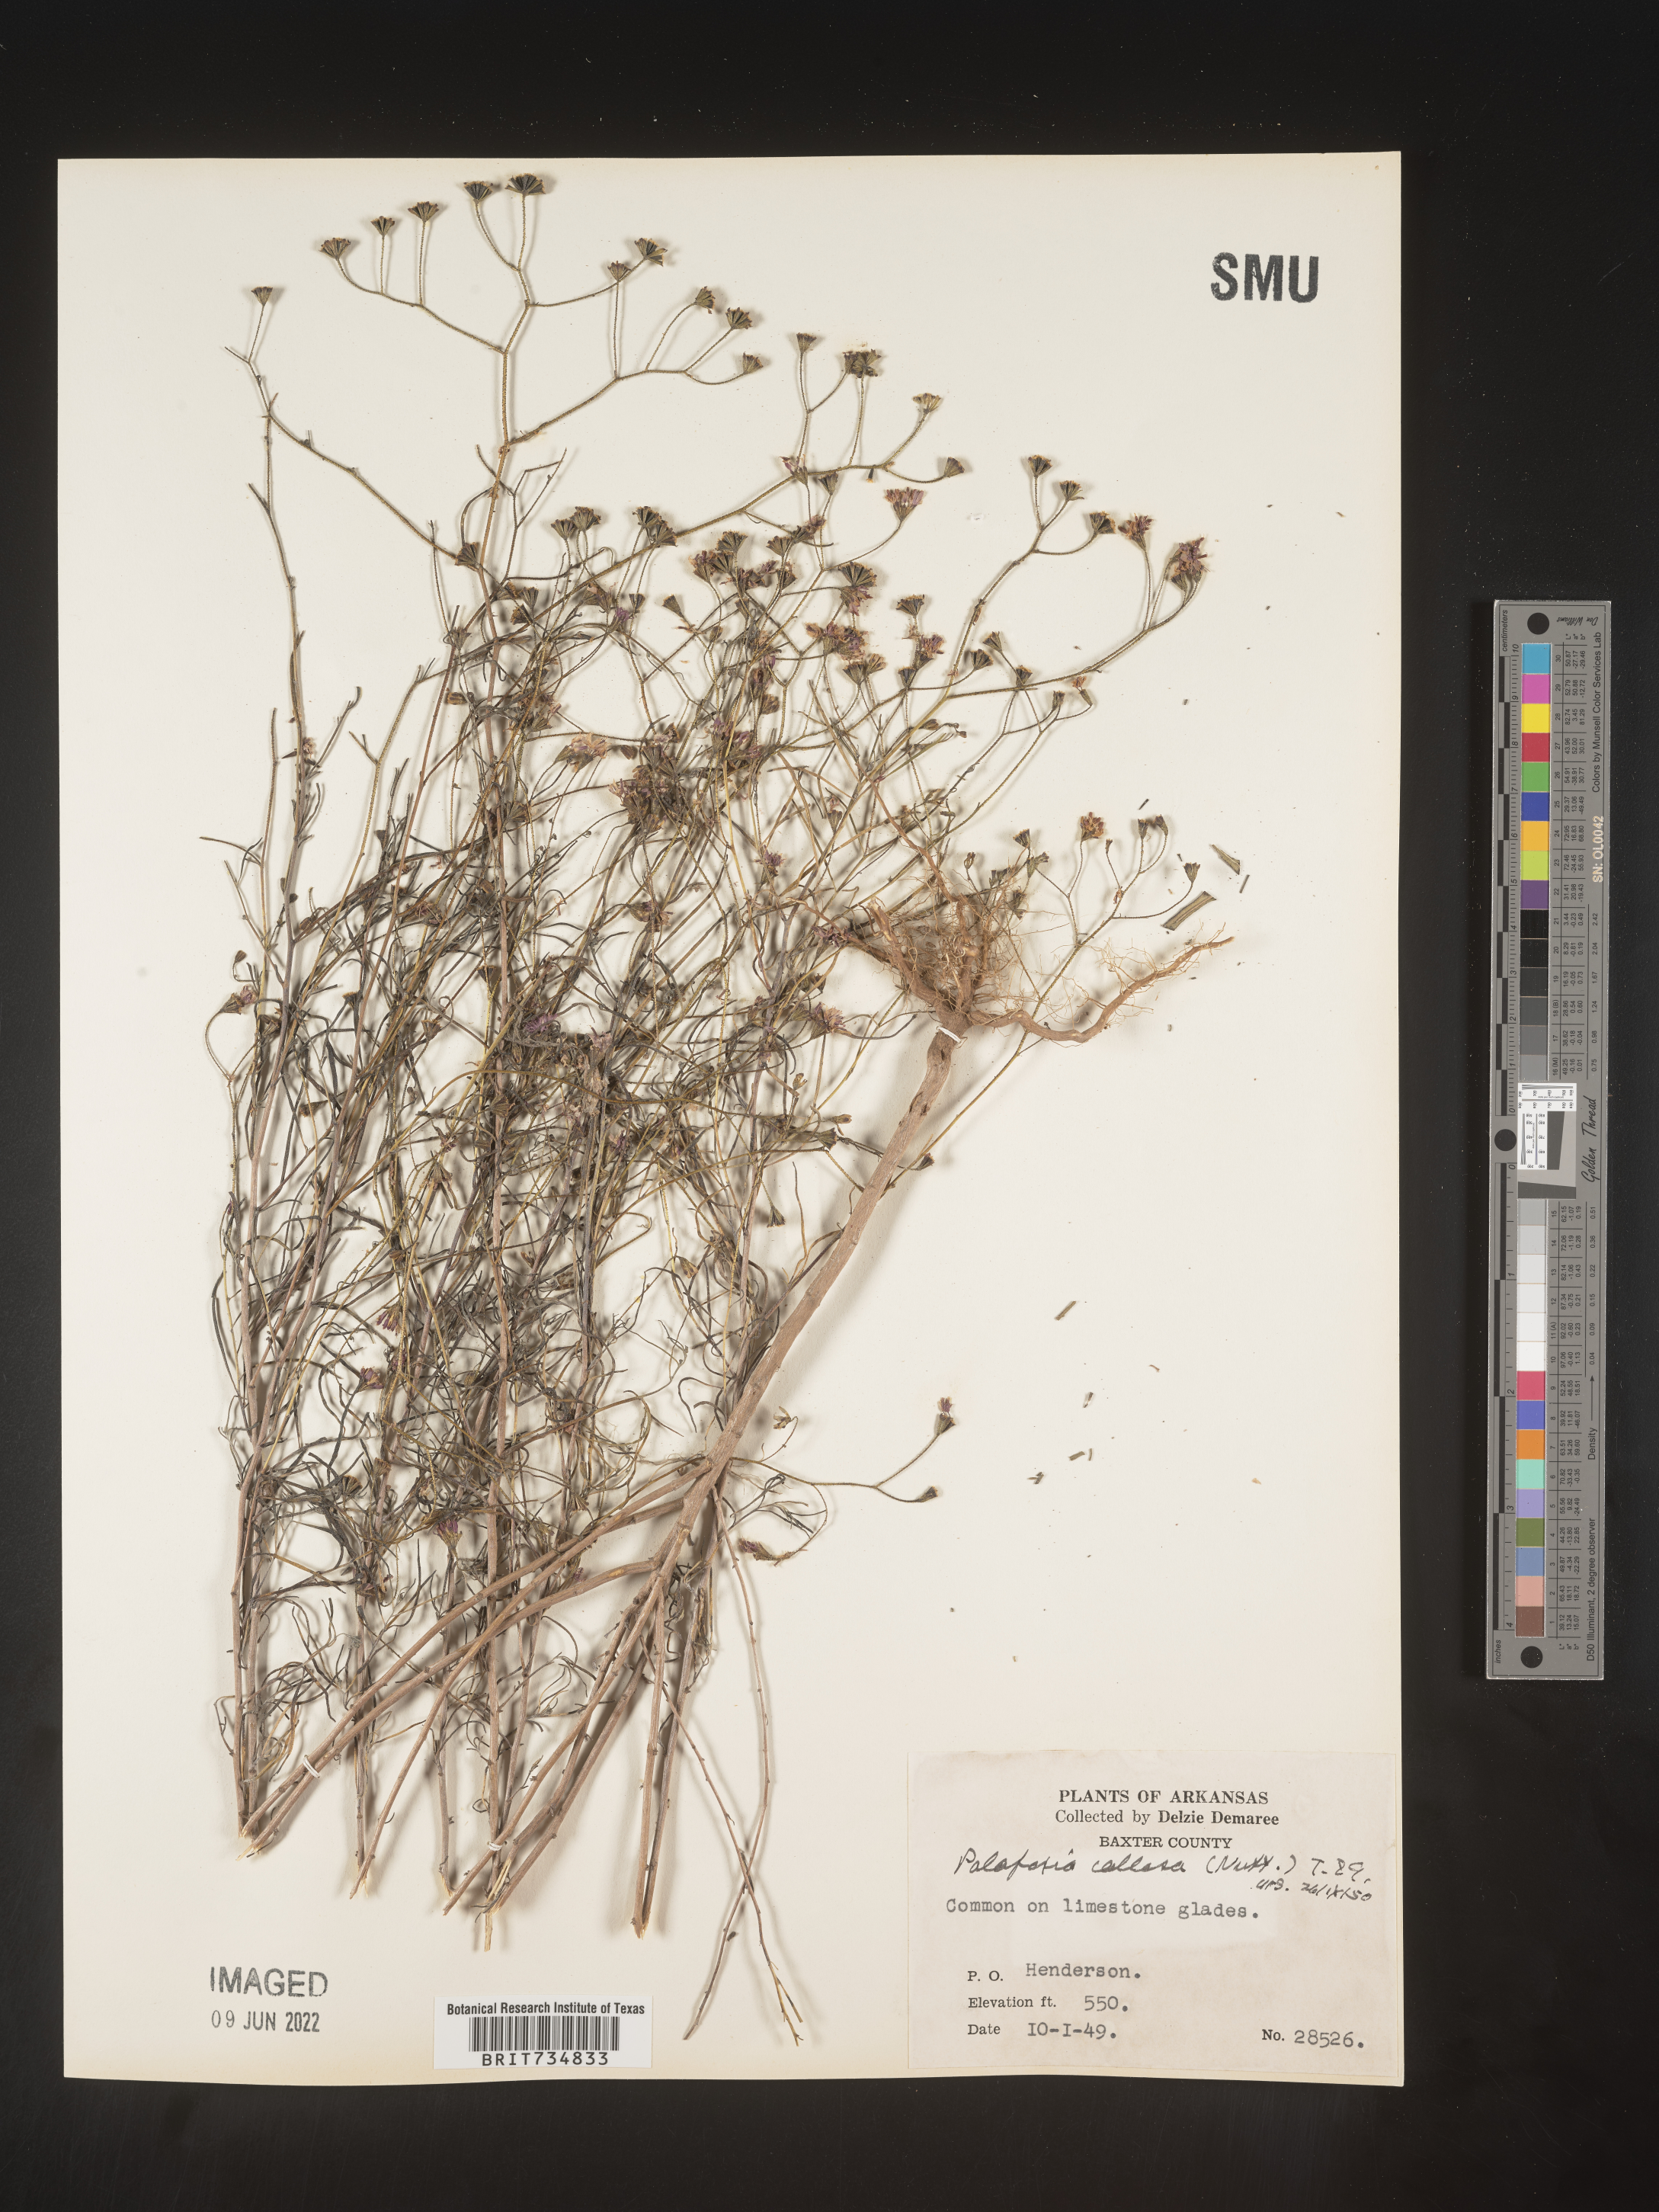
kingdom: Plantae
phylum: Tracheophyta
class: Magnoliopsida
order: Asterales
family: Asteraceae
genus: Palafoxia
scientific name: Palafoxia callosa
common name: Small palafox
